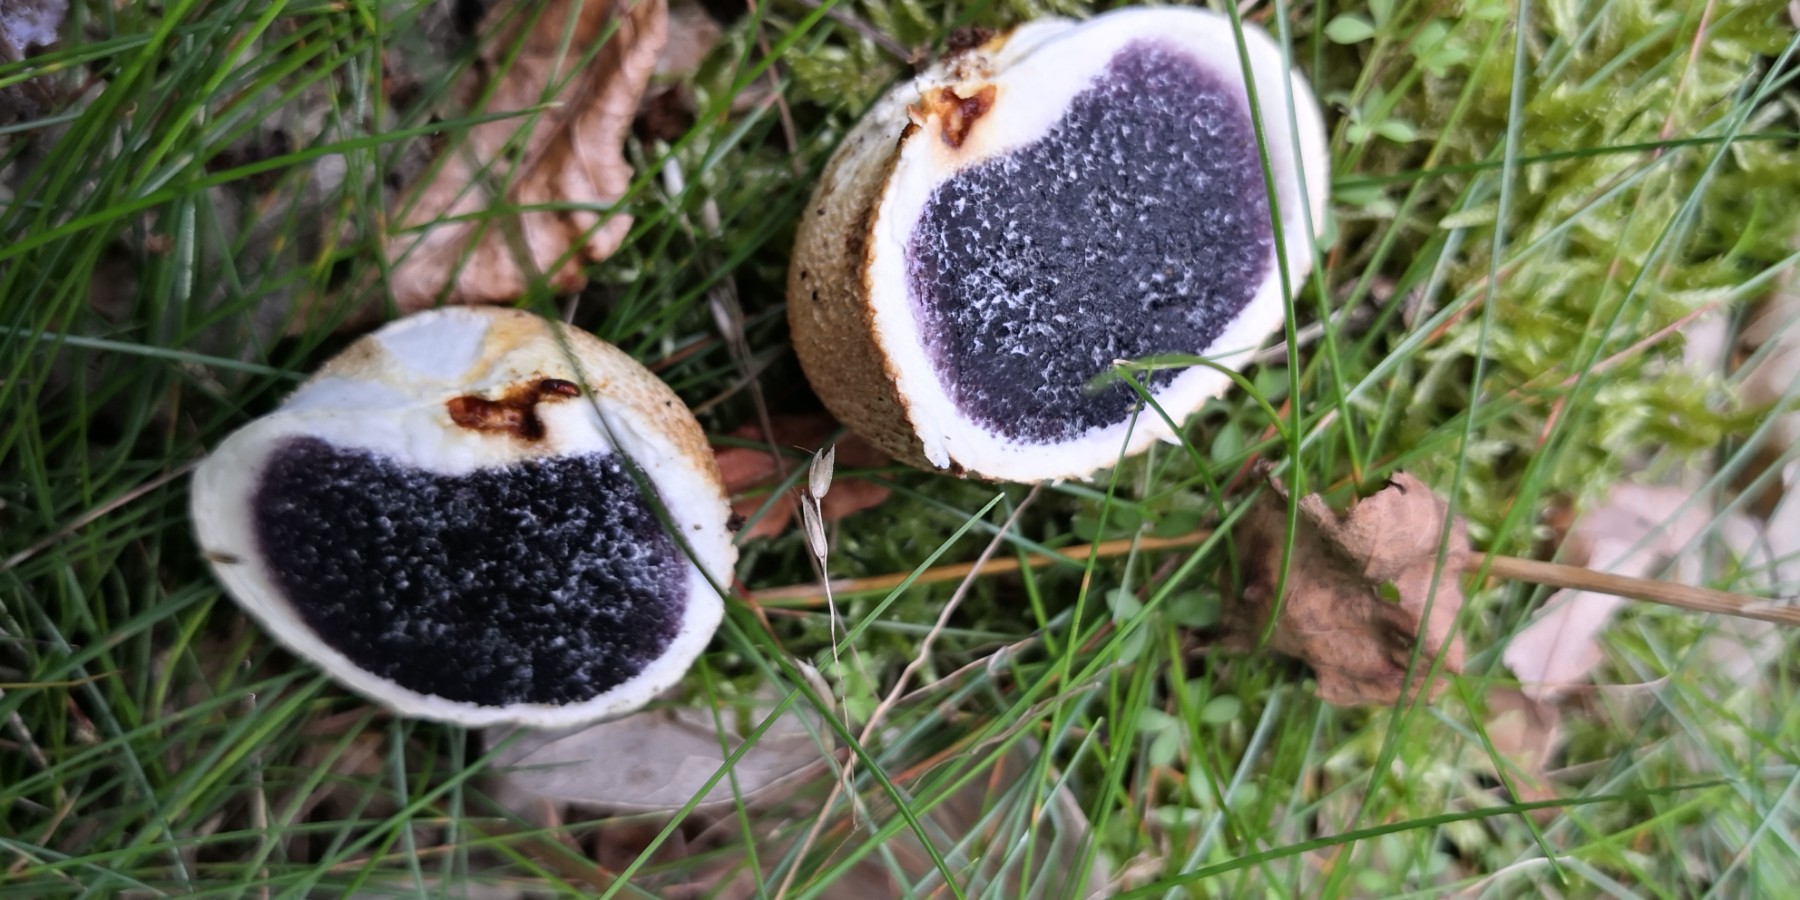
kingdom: Fungi
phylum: Basidiomycota
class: Agaricomycetes
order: Boletales
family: Sclerodermataceae
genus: Scleroderma
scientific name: Scleroderma citrinum
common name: almindelig bruskbold
